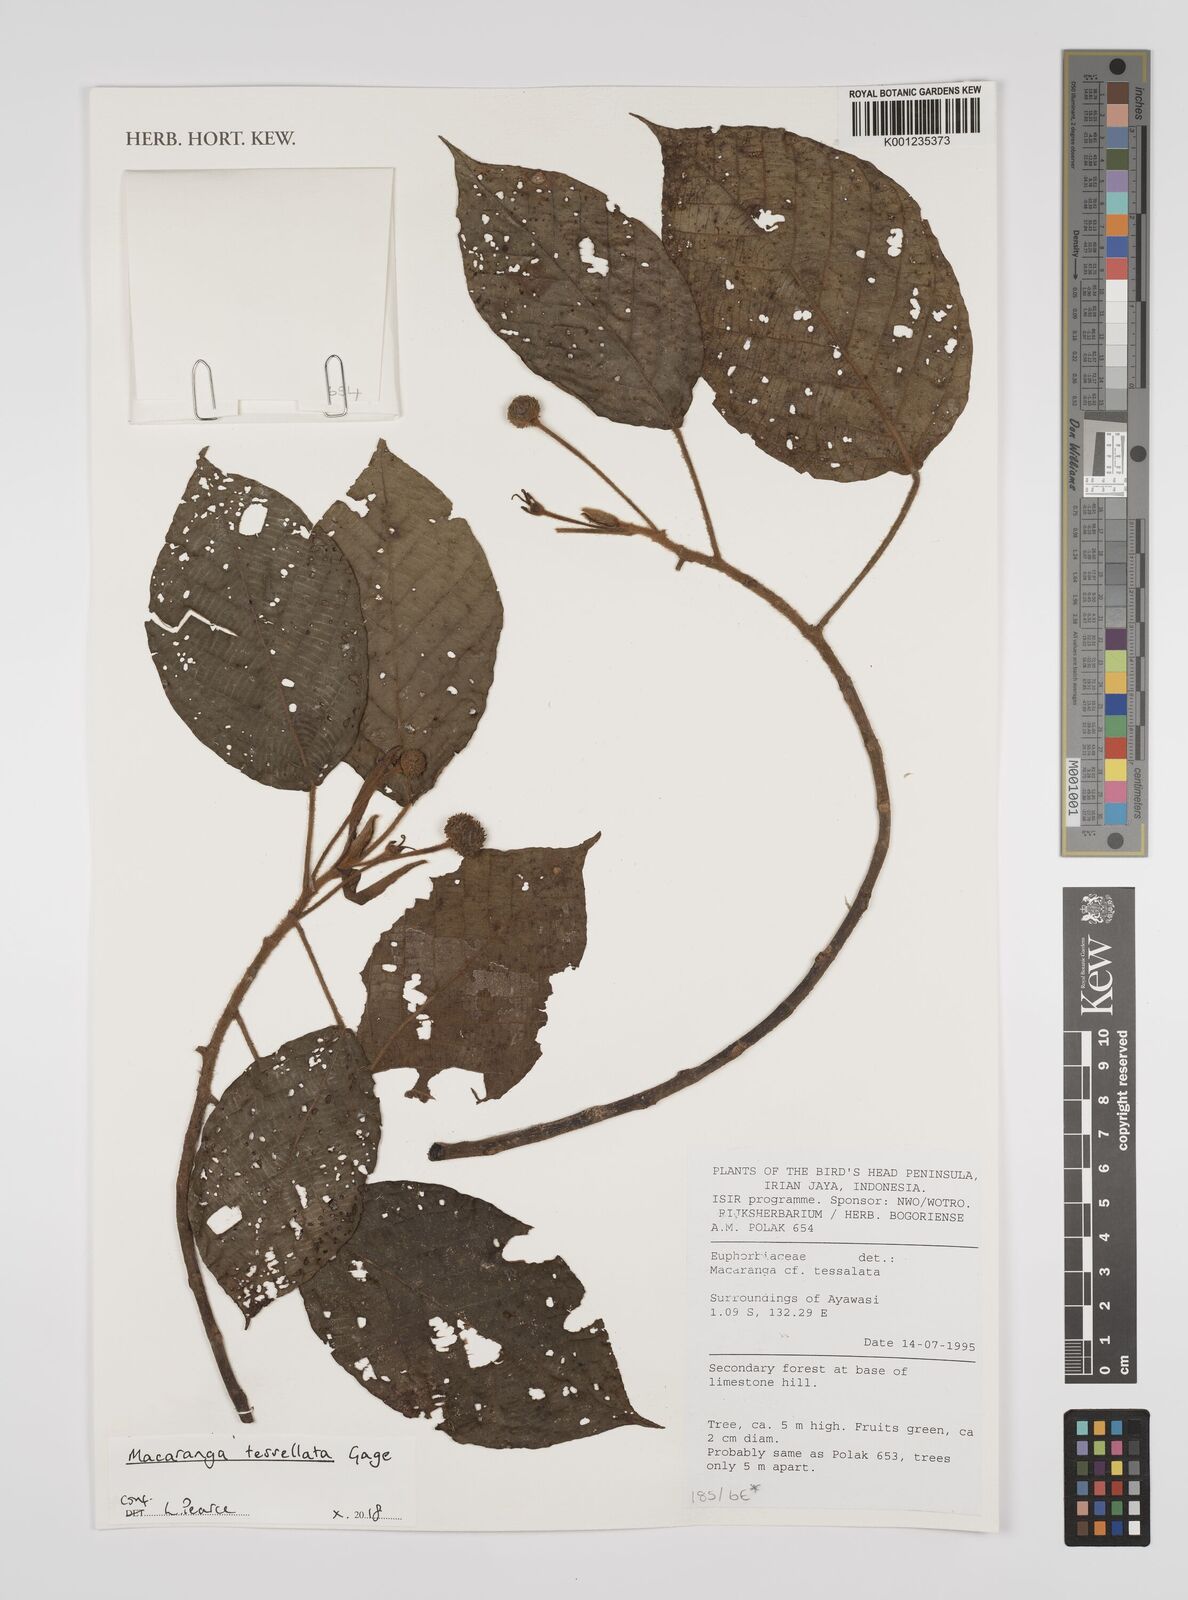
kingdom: Plantae
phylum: Tracheophyta
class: Magnoliopsida
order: Malpighiales
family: Euphorbiaceae
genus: Macaranga
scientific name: Macaranga tessellata
